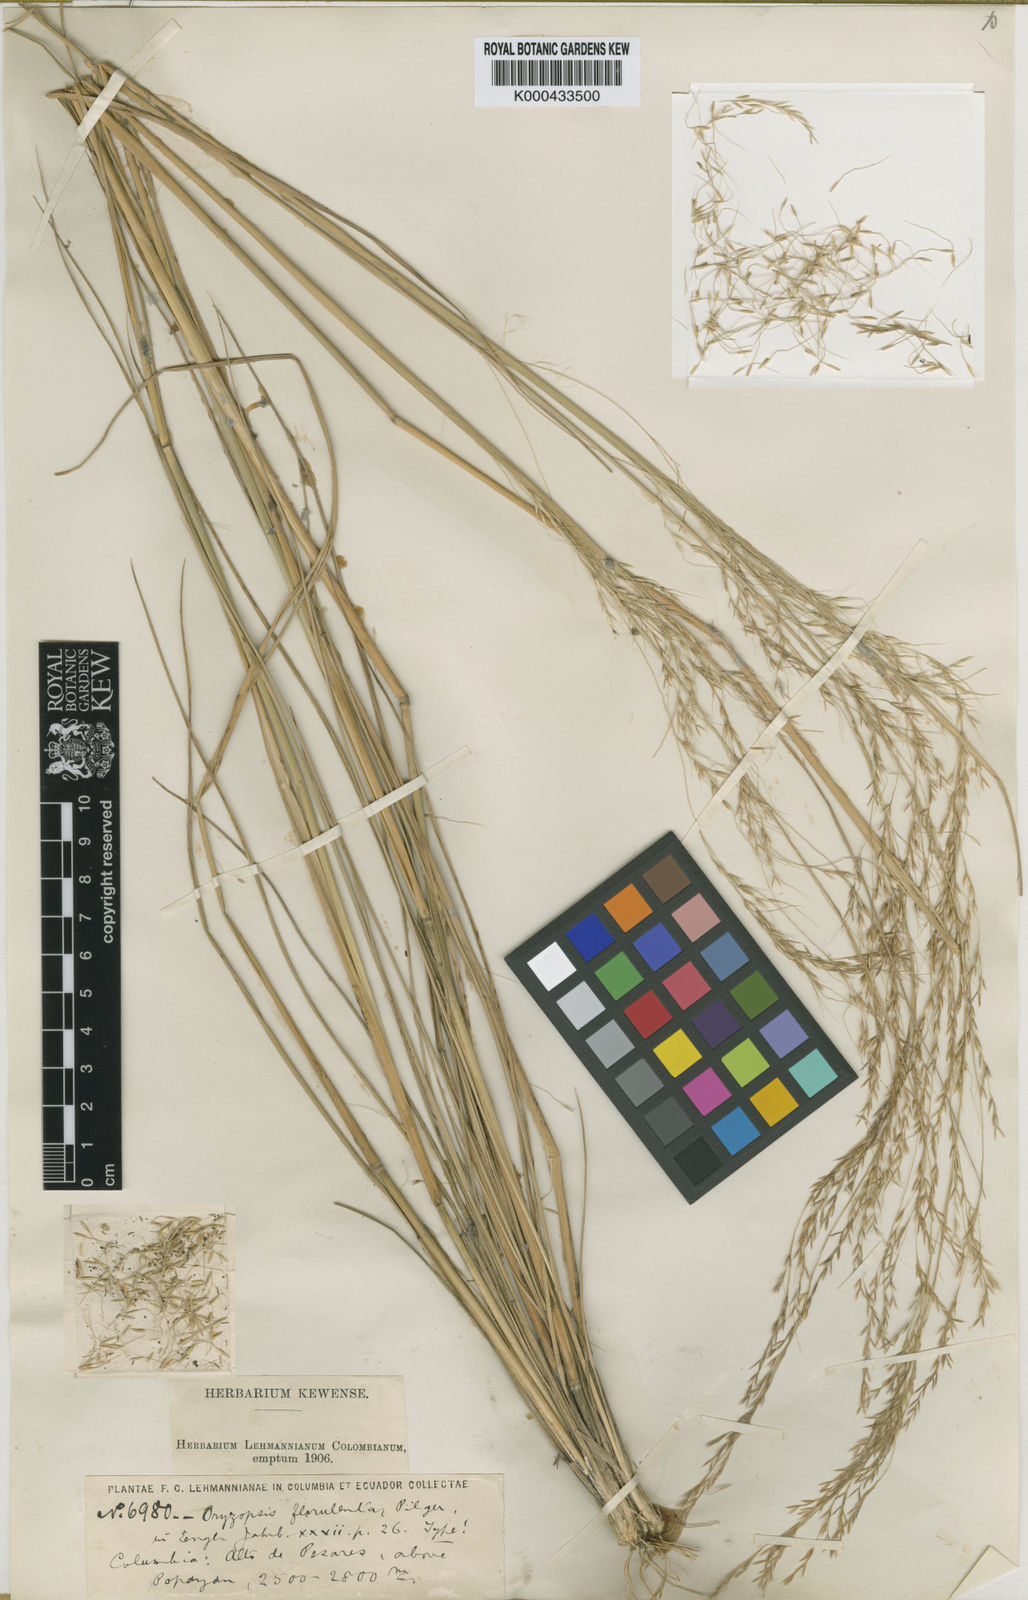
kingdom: Plantae
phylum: Tracheophyta
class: Liliopsida
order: Poales
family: Poaceae
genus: Nassella
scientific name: Nassella caespitosa
